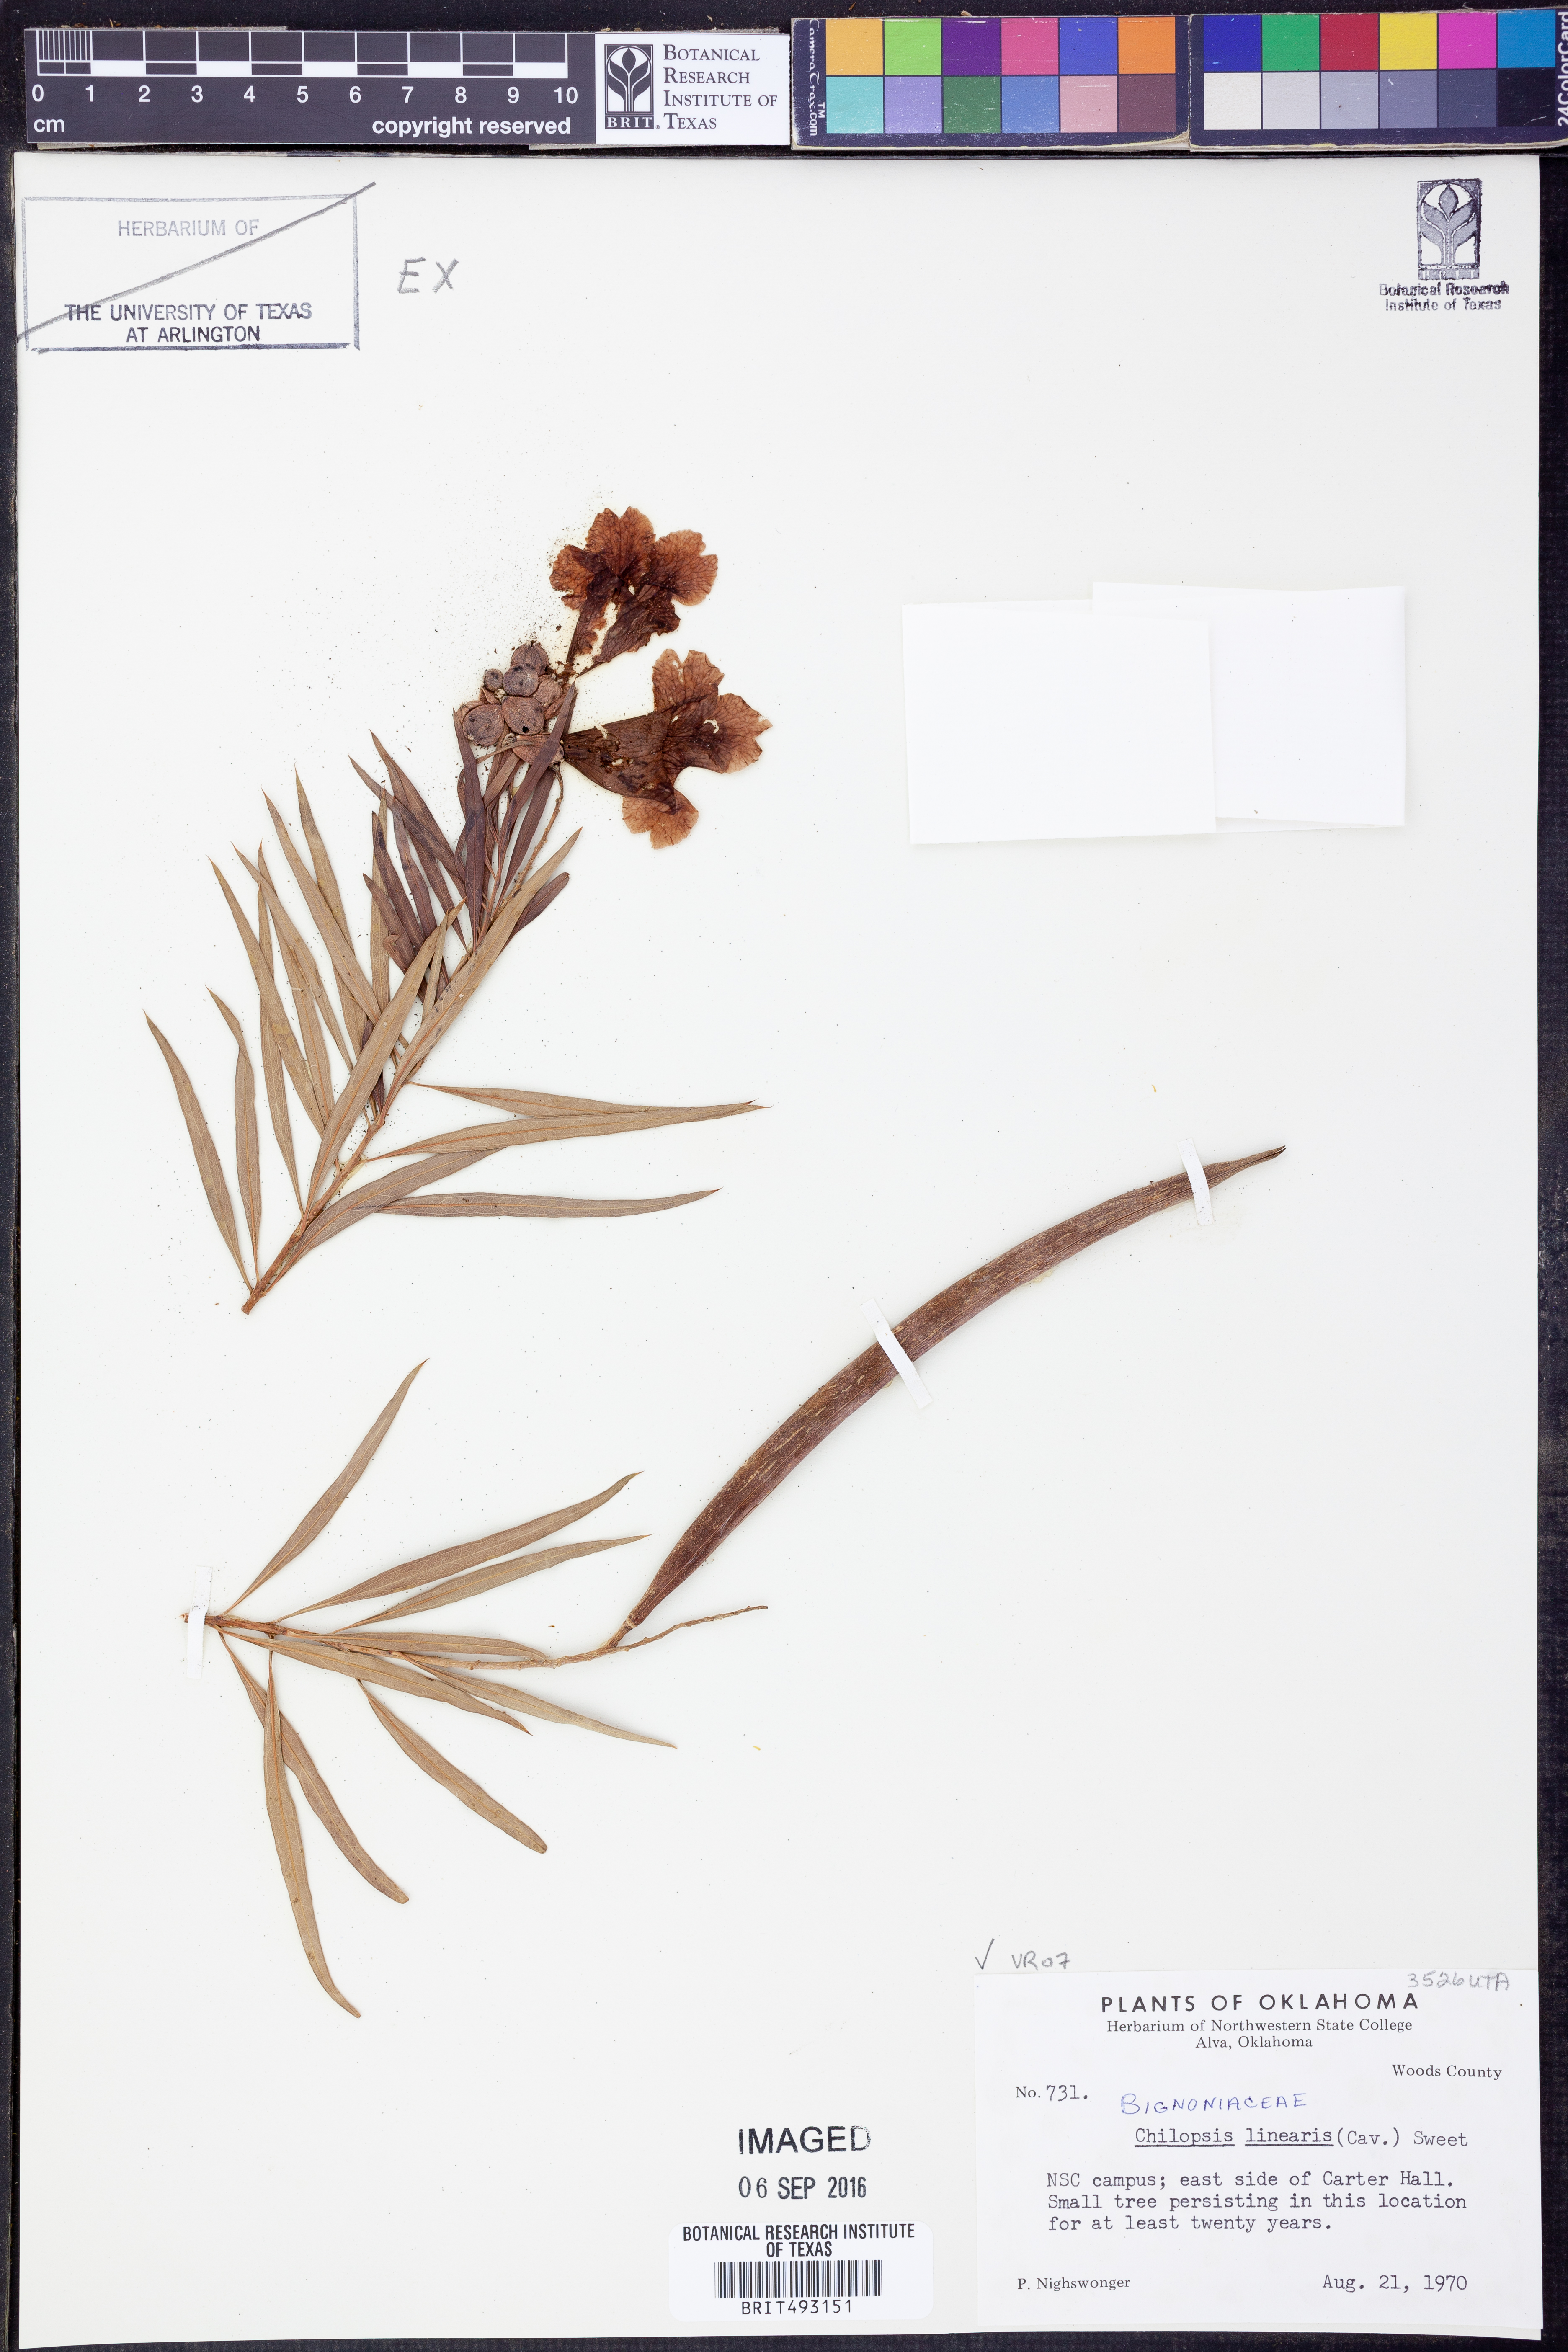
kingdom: Plantae
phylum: Tracheophyta
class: Magnoliopsida
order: Lamiales
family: Bignoniaceae
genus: Chilopsis
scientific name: Chilopsis linearis
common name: Desert-willow
